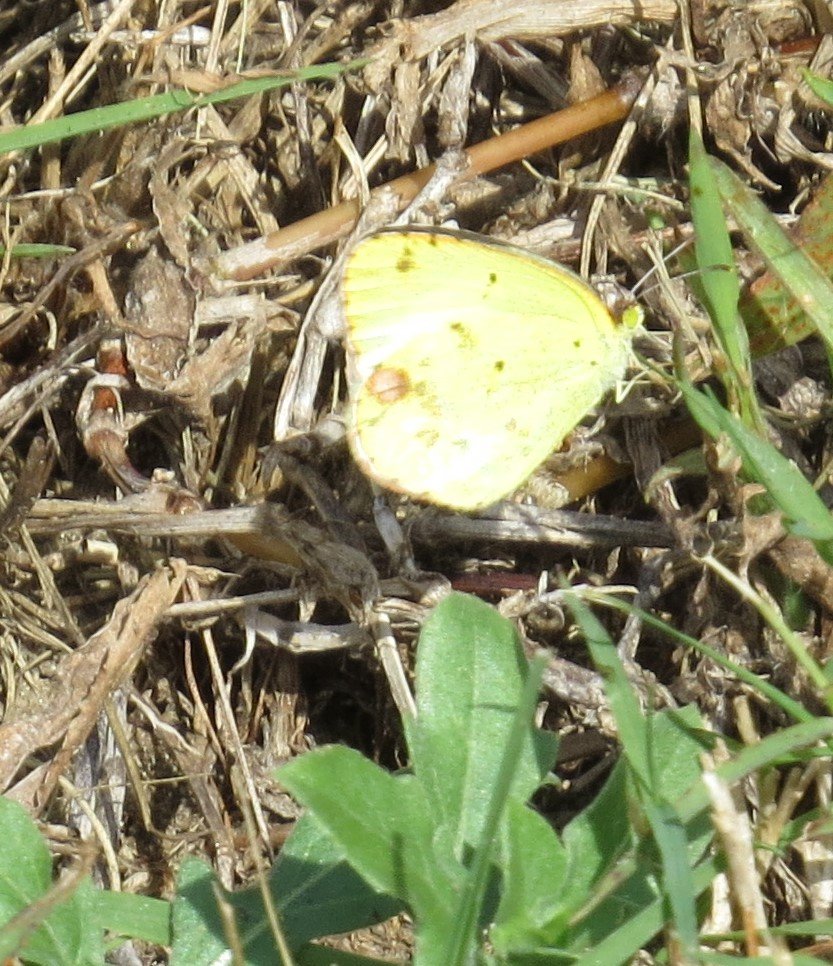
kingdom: Animalia
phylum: Arthropoda
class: Insecta
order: Lepidoptera
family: Pieridae
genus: Pyrisitia
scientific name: Pyrisitia lisa
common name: Little Yellow
